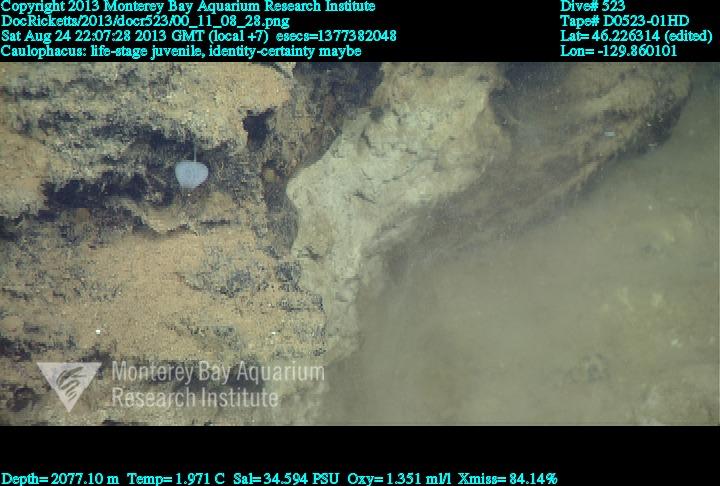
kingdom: Animalia
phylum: Porifera
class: Hexactinellida
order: Lyssacinosida
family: Rossellidae
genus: Caulophacus
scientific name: Caulophacus
